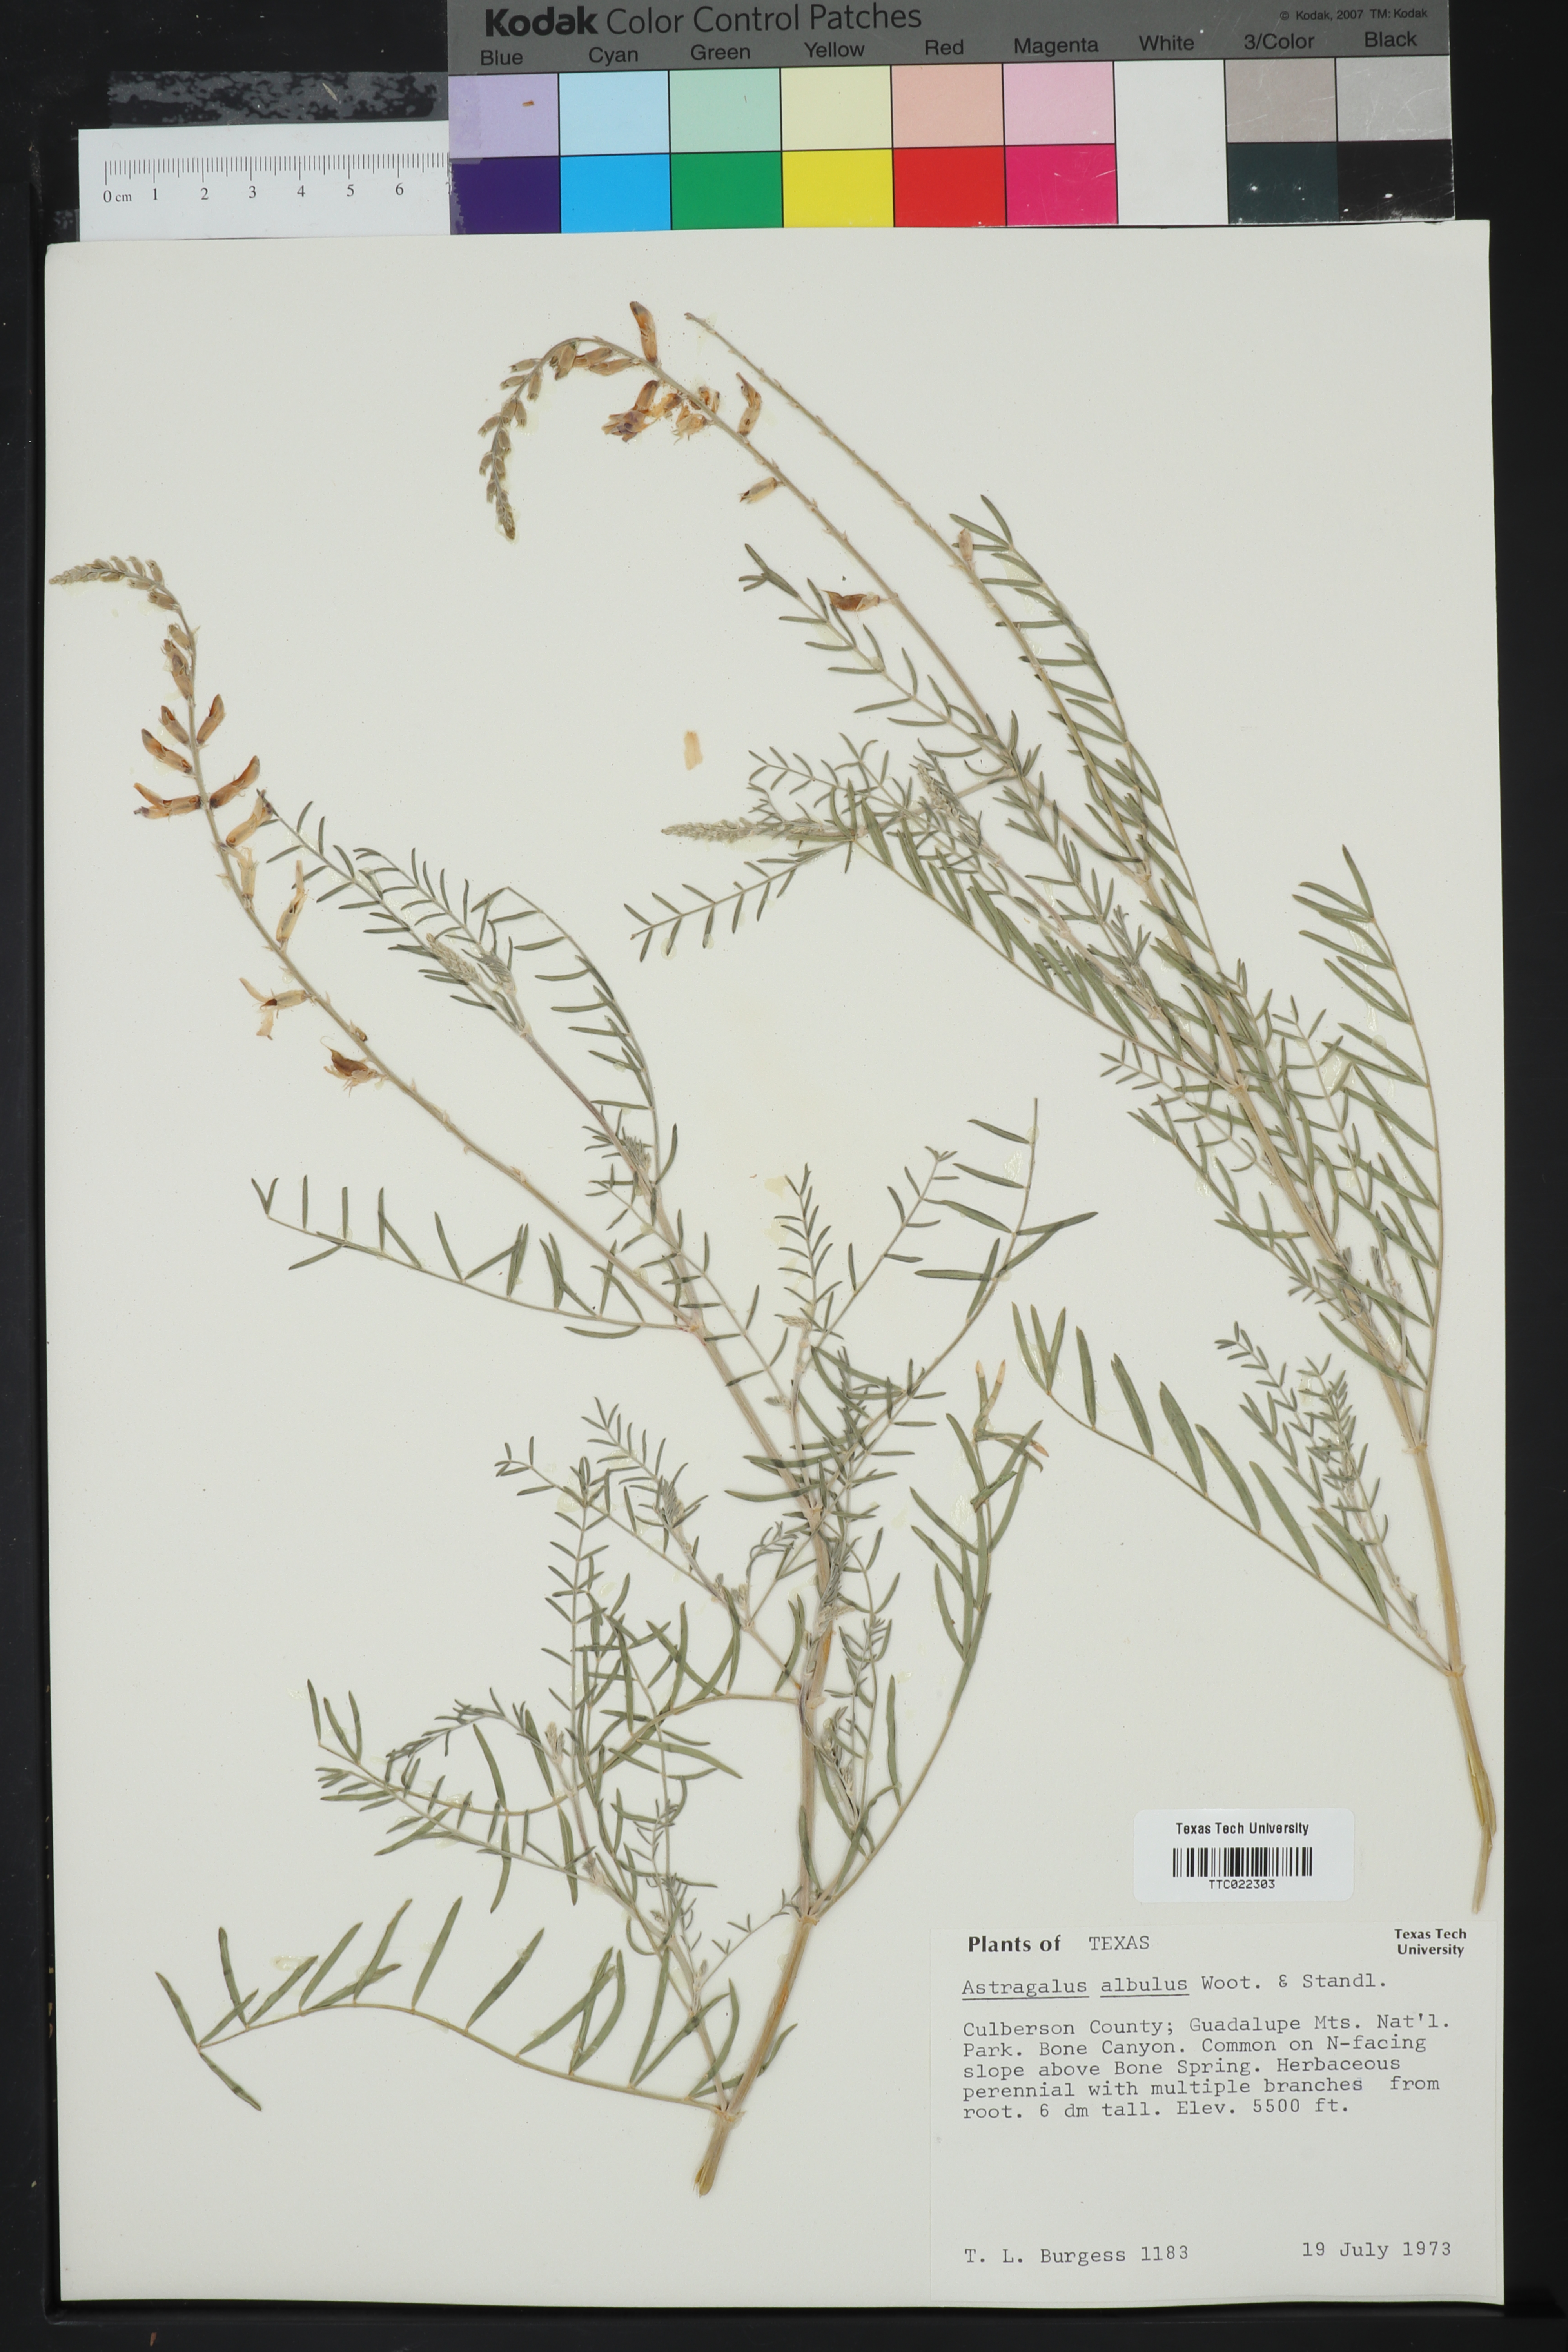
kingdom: Plantae
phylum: Tracheophyta
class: Magnoliopsida
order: Fabales
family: Fabaceae
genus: Astragalus
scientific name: Astragalus albulus
